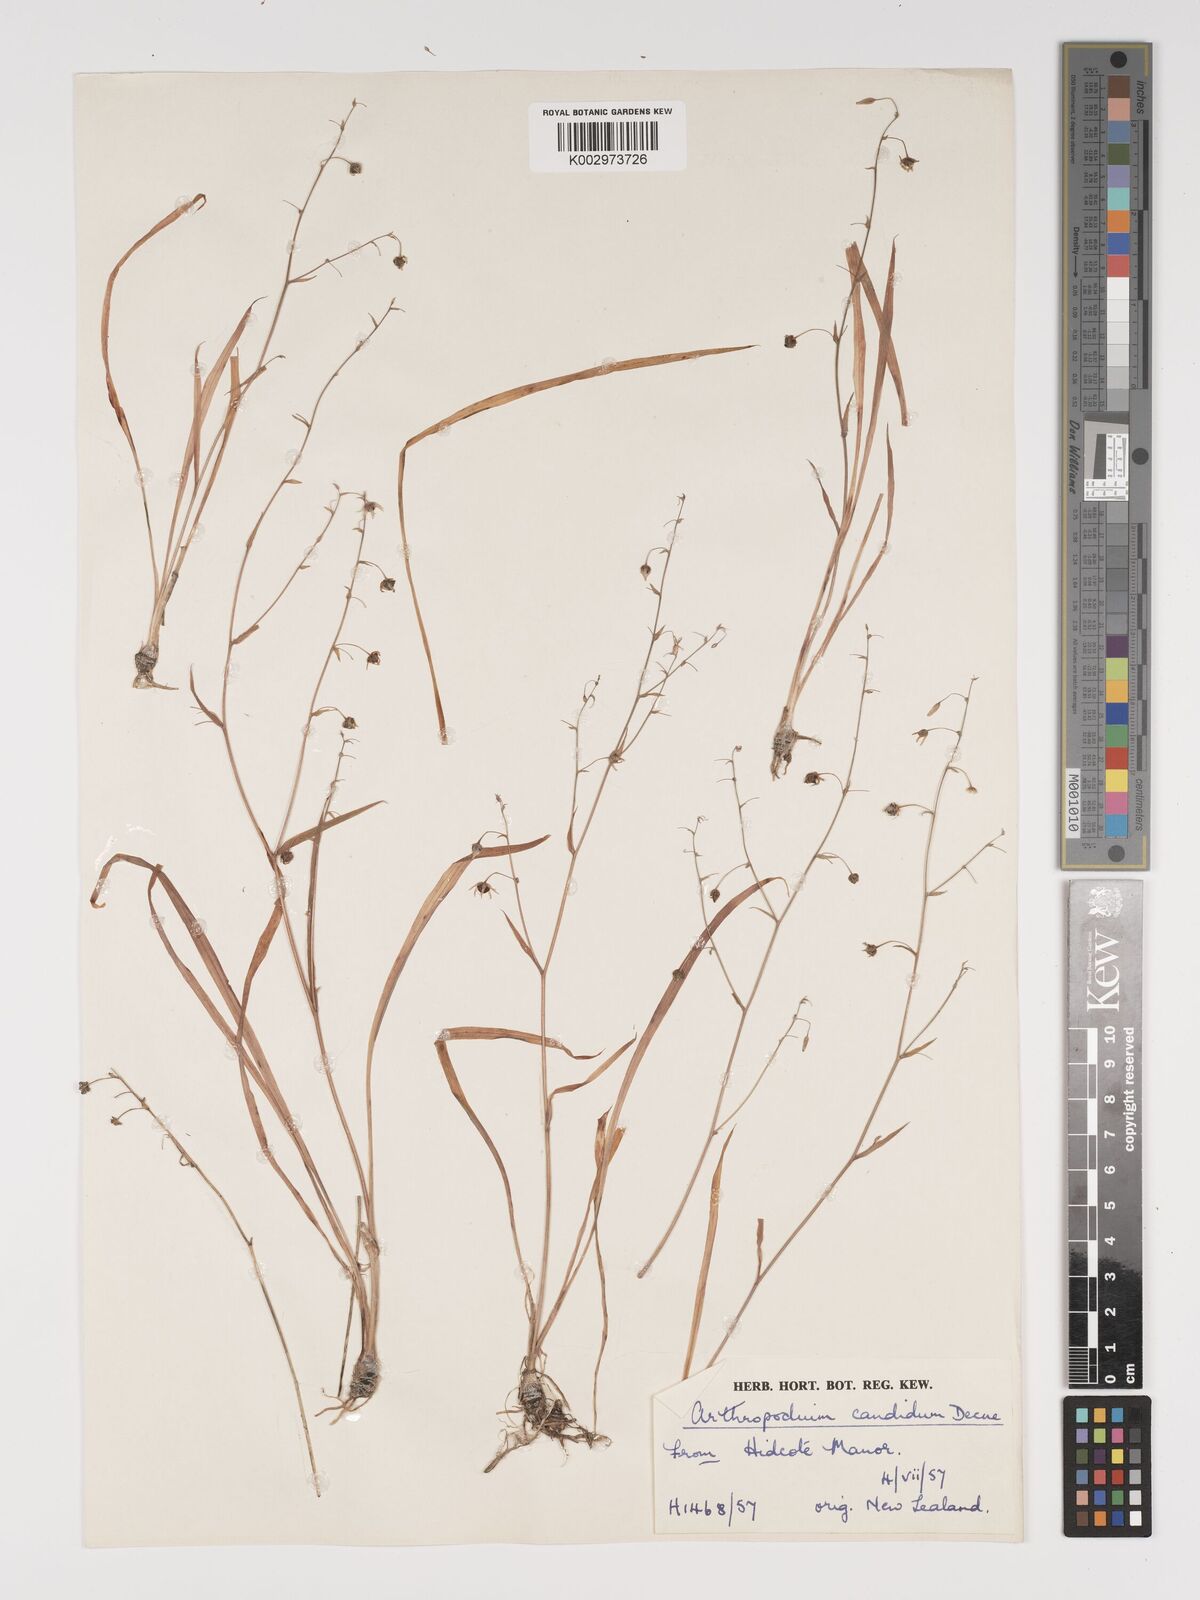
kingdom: Plantae
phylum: Tracheophyta
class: Liliopsida
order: Asparagales
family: Asparagaceae
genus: Arthropodium
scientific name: Arthropodium candidum
